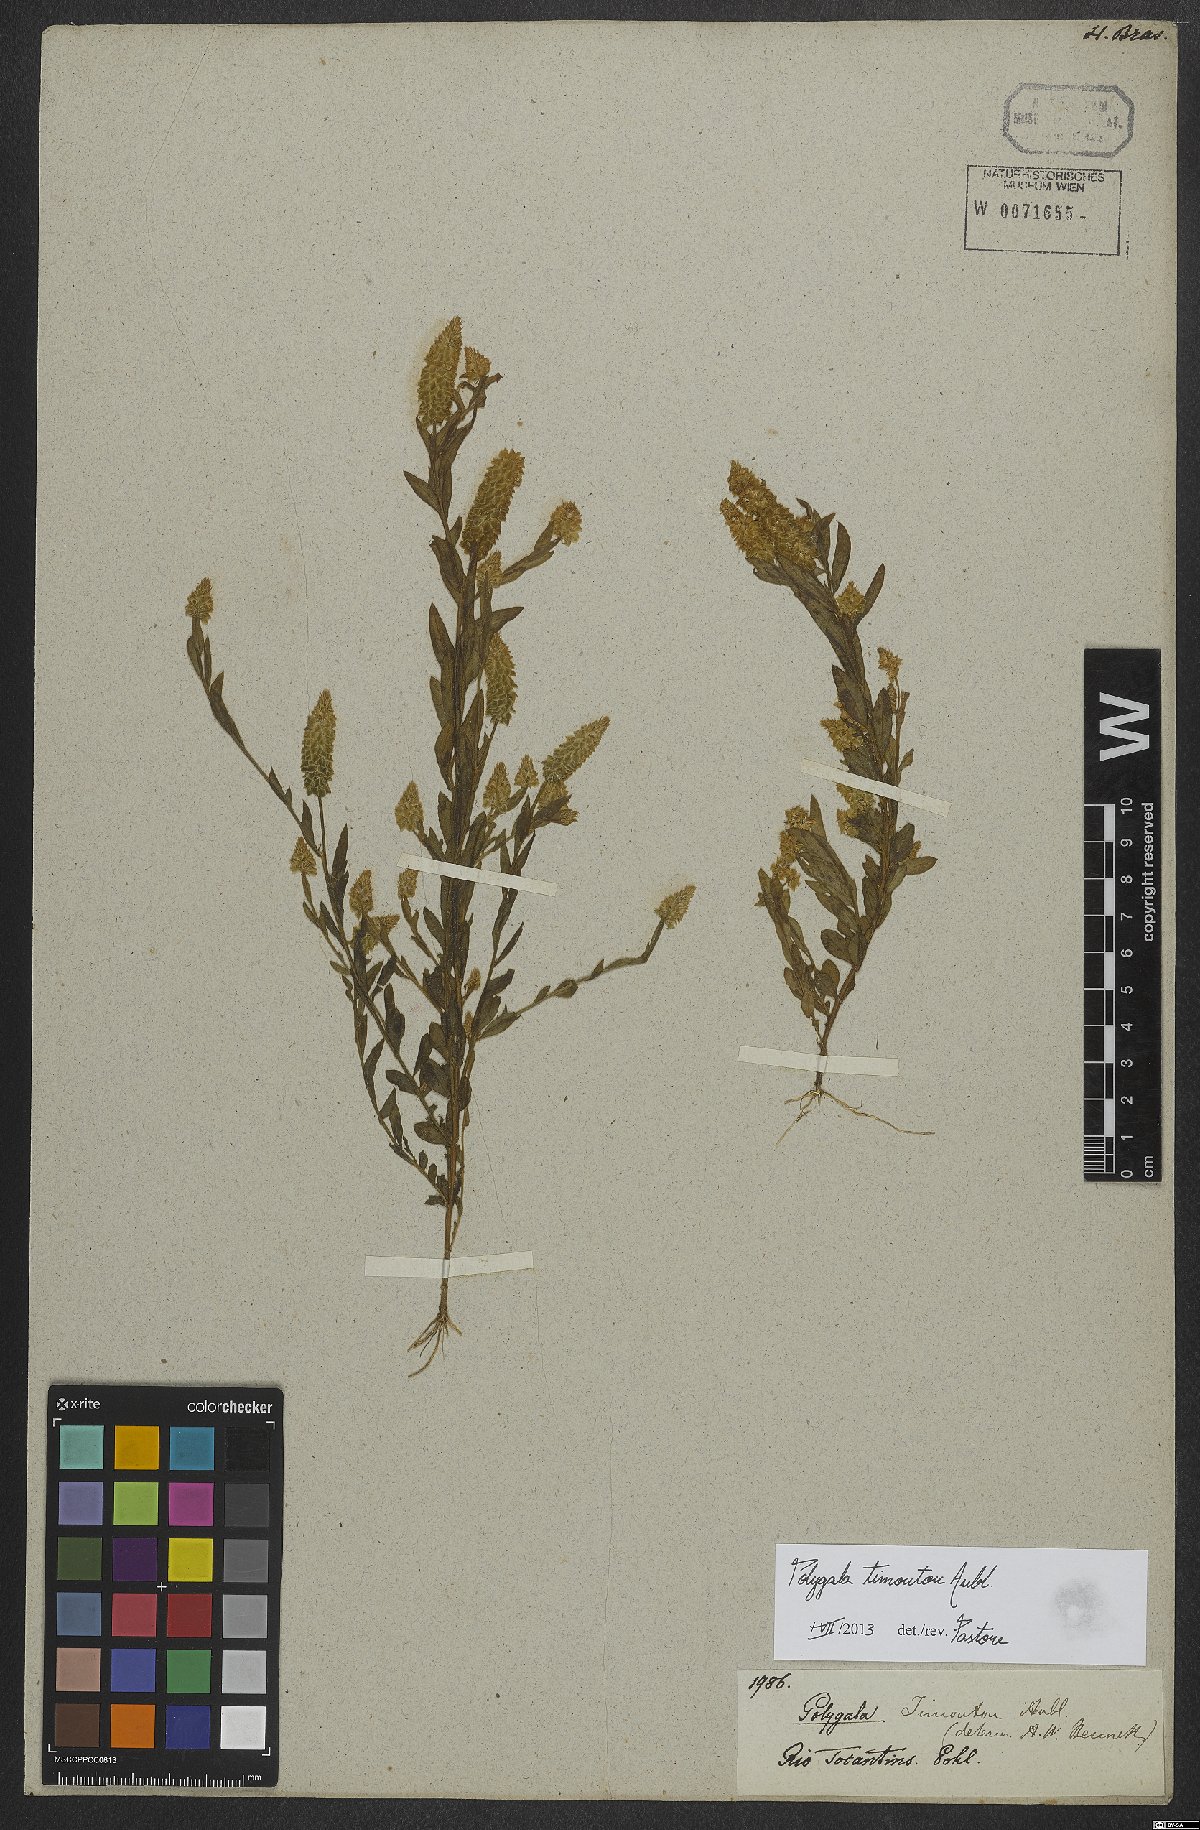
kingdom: Plantae
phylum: Tracheophyta
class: Magnoliopsida
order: Fabales
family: Polygalaceae
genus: Polygala
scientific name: Polygala timoutou
